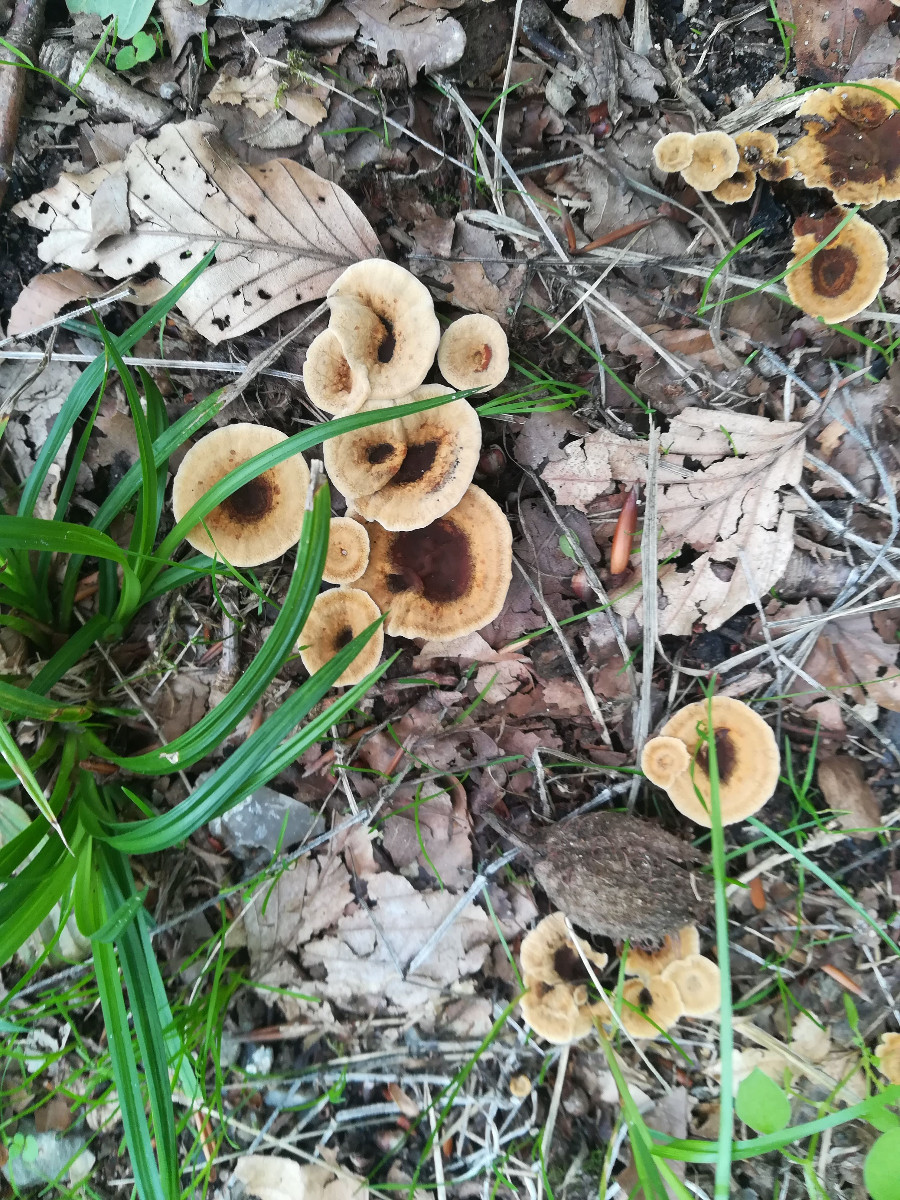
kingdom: Fungi
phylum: Basidiomycota
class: Agaricomycetes
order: Hymenochaetales
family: Hymenochaetaceae
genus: Coltricia
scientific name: Coltricia perennis
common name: almindelig sandporesvamp
